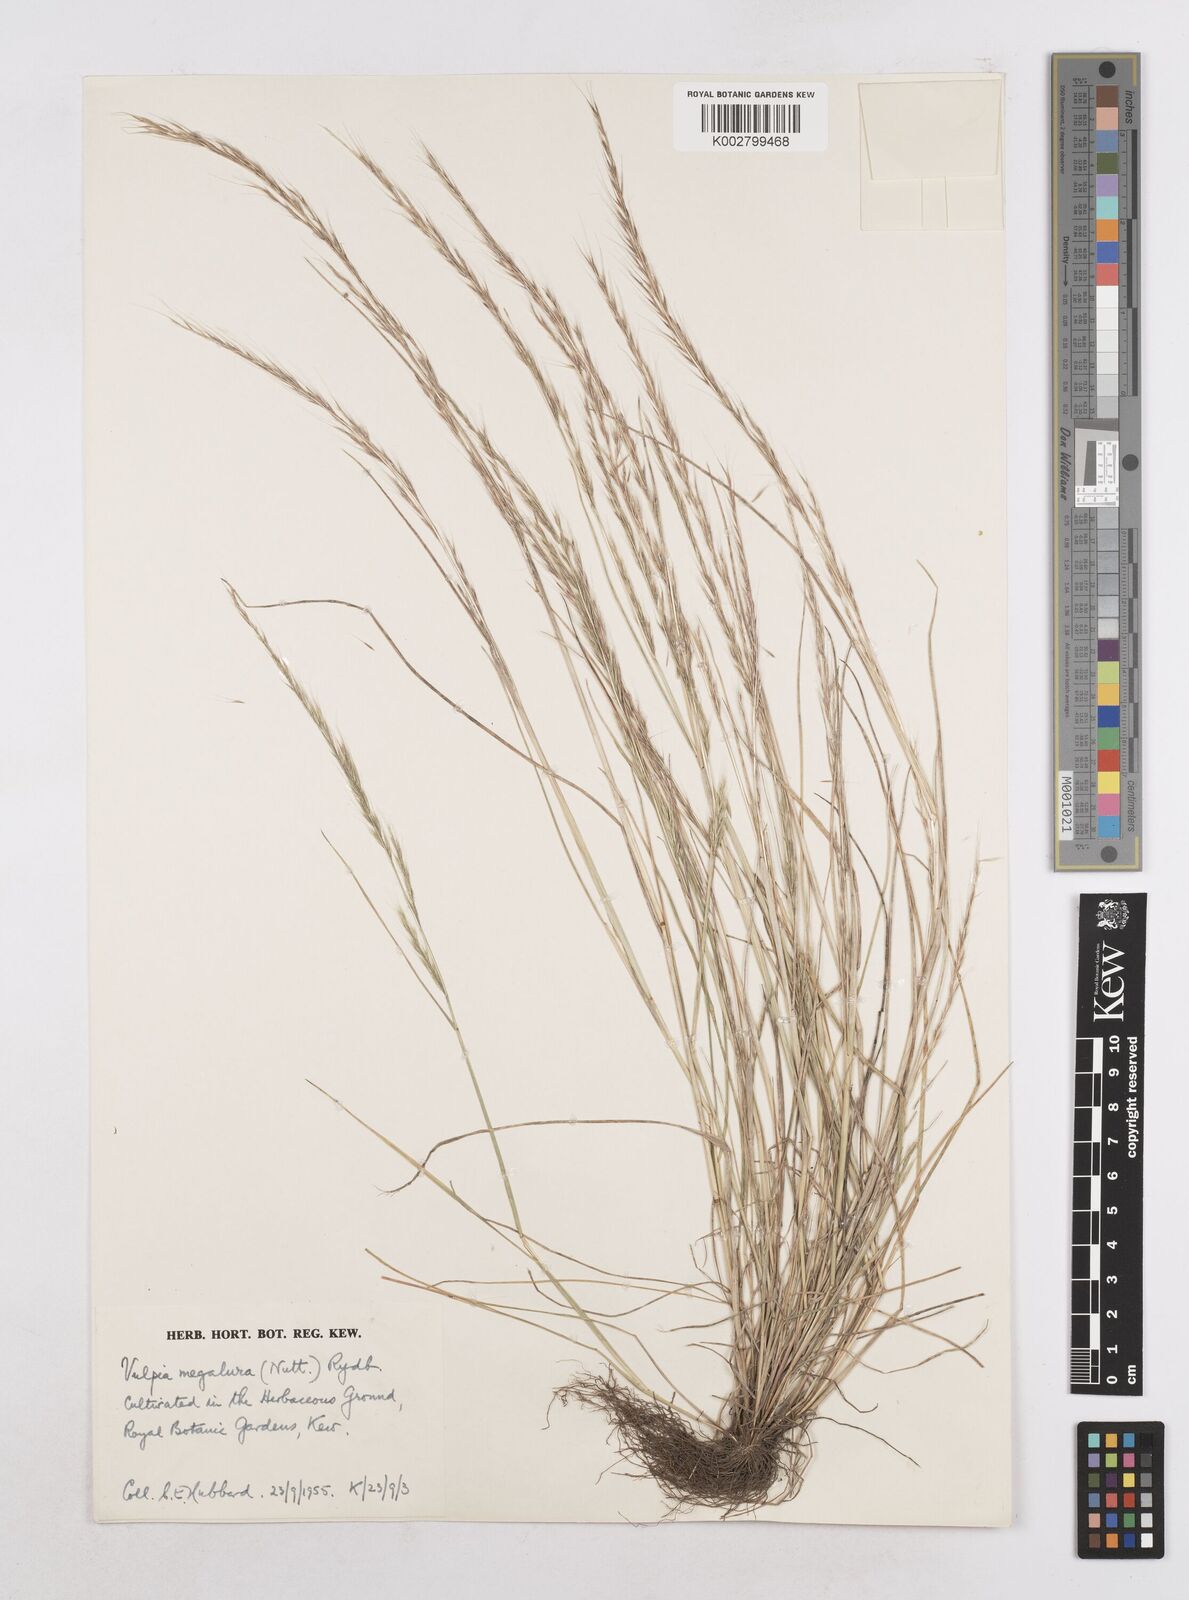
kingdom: Plantae
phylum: Tracheophyta
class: Liliopsida
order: Poales
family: Poaceae
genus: Festuca
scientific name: Festuca myuros
